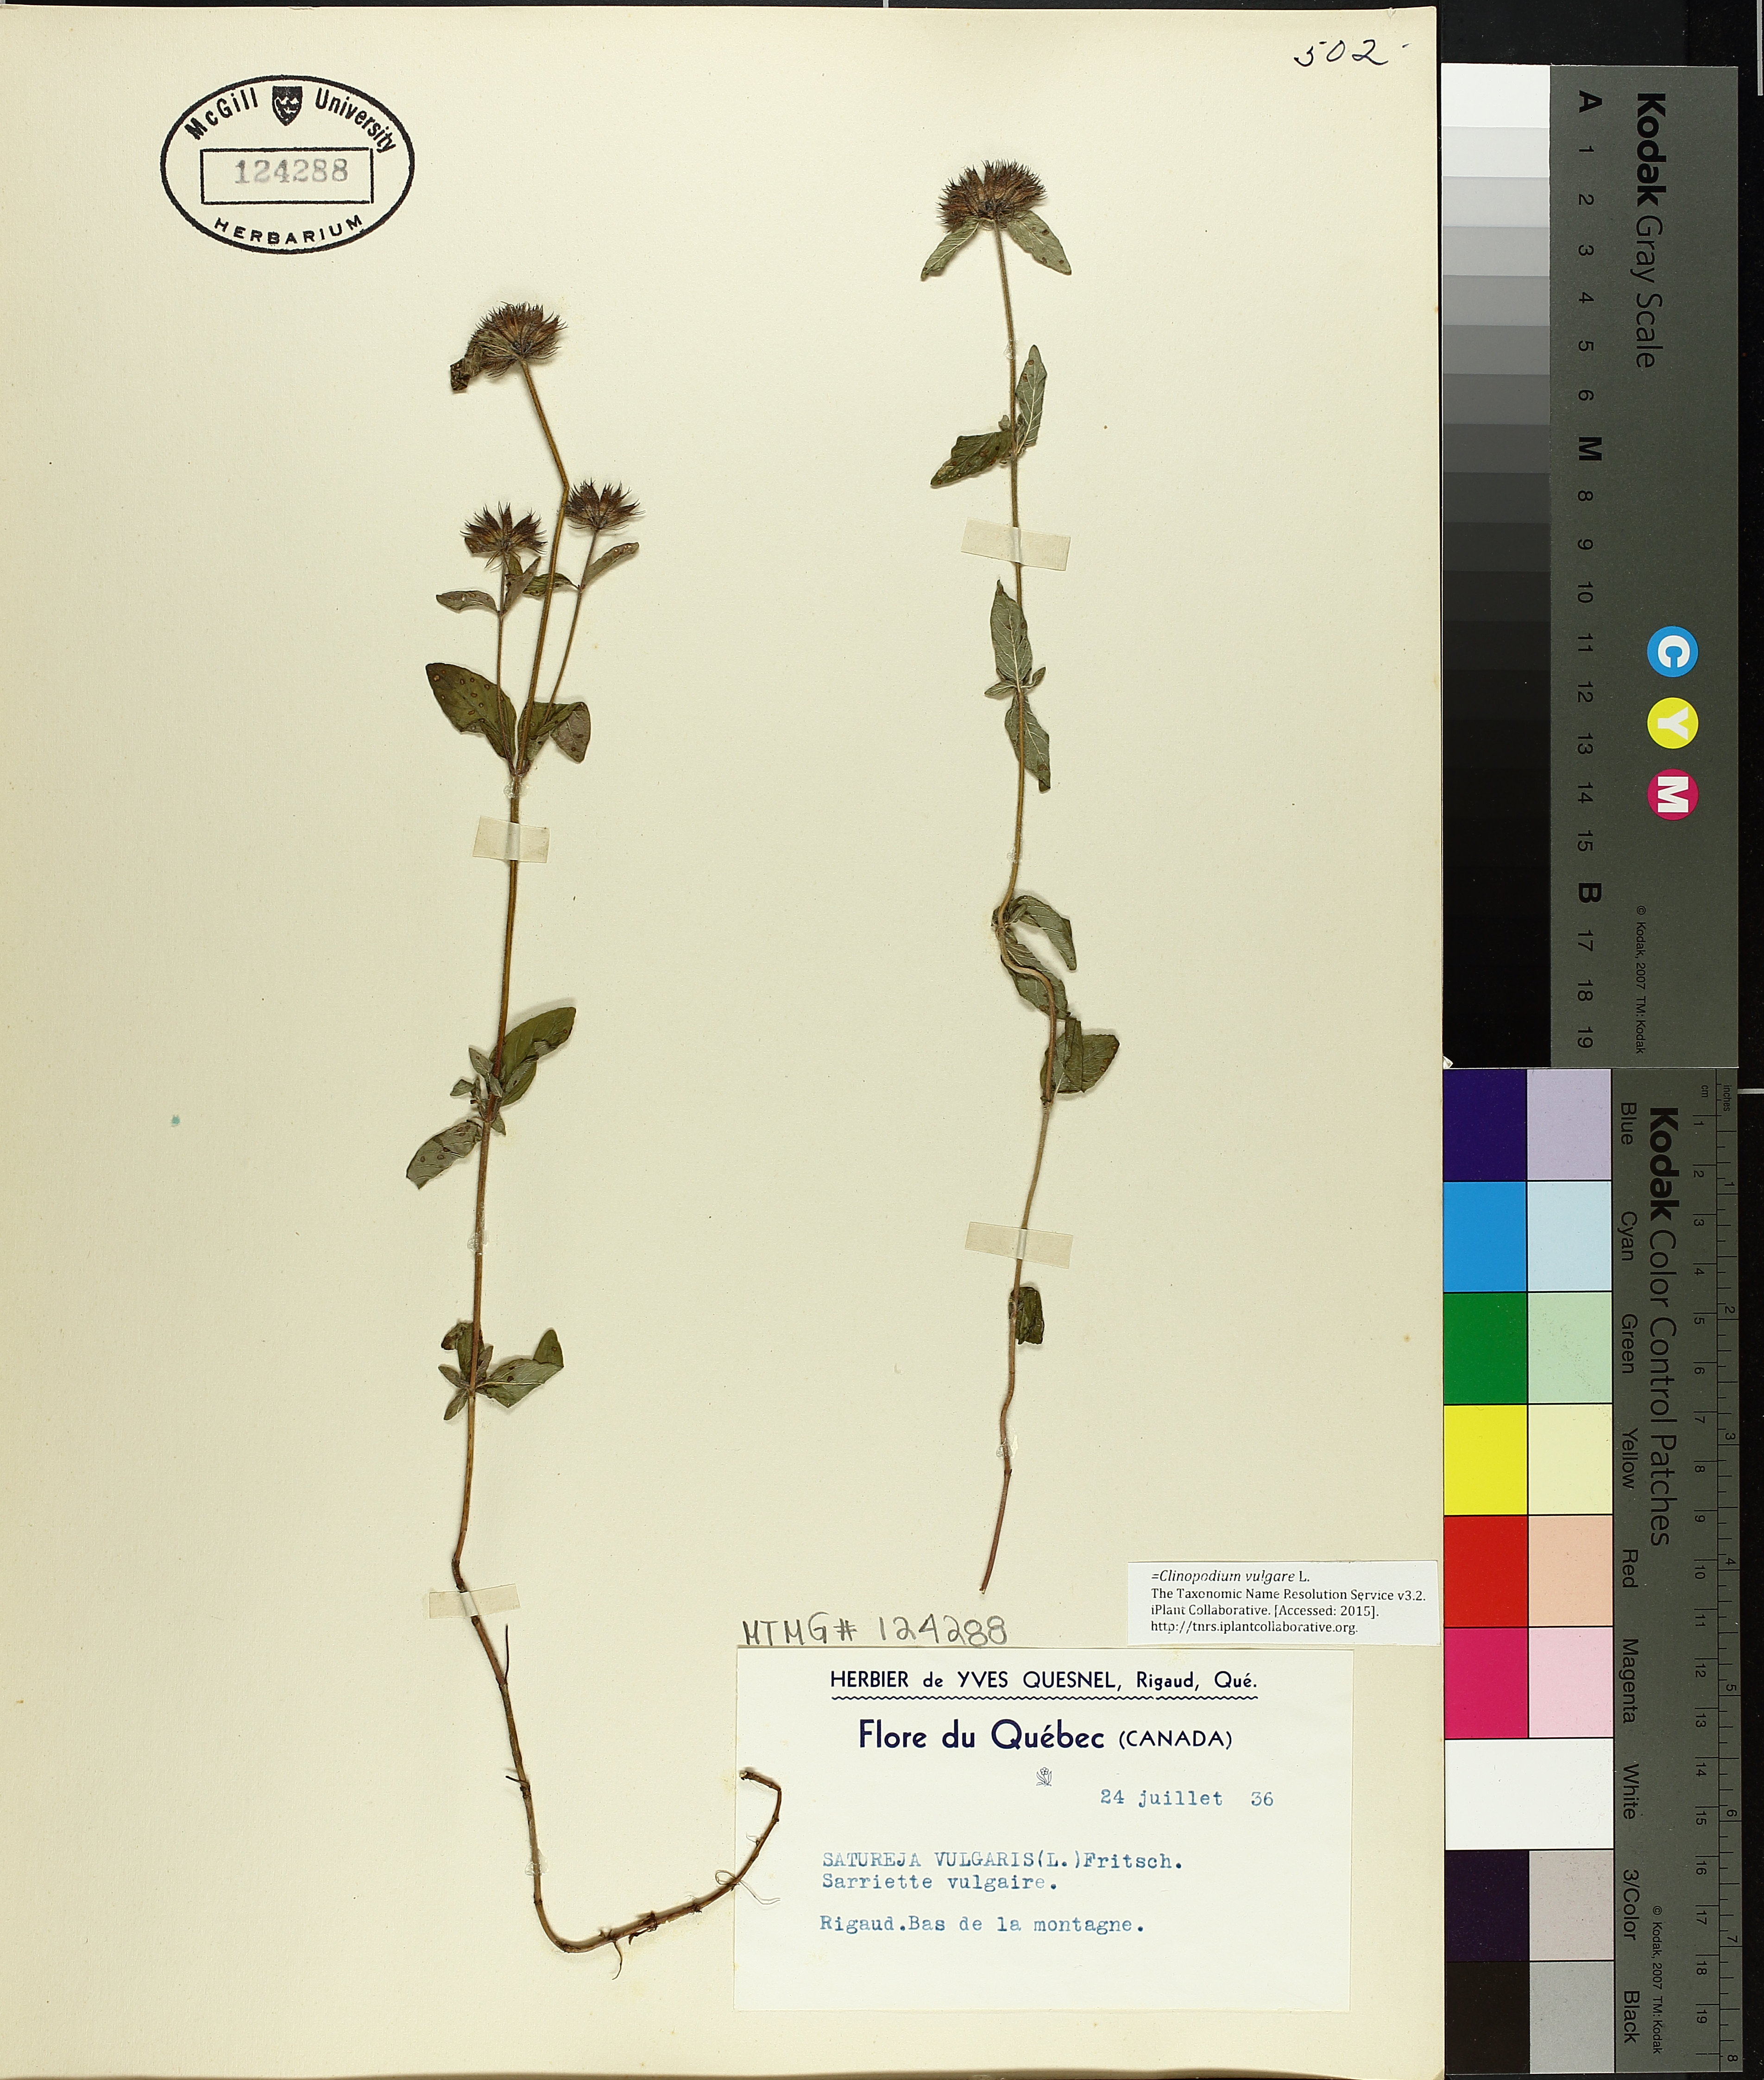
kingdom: Plantae
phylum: Tracheophyta
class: Magnoliopsida
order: Lamiales
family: Lamiaceae
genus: Clinopodium
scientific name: Clinopodium vulgare
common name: Wild basil
